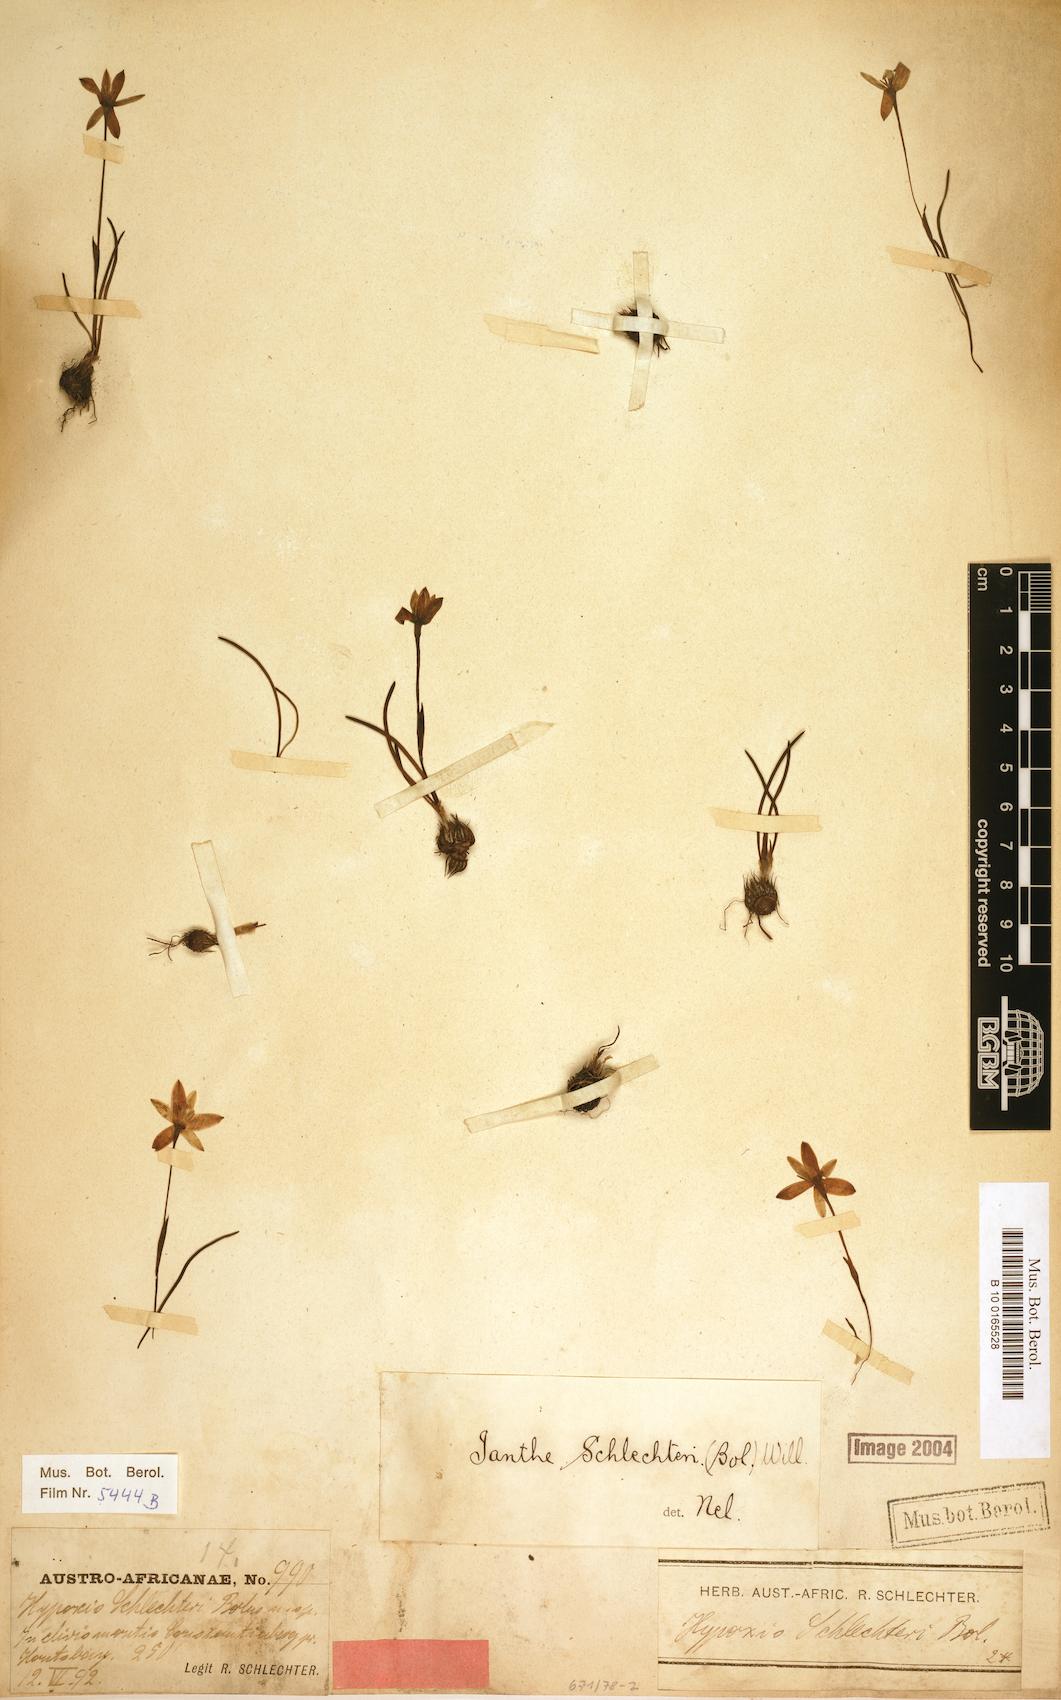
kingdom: Plantae
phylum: Tracheophyta
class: Liliopsida
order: Asparagales
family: Hypoxidaceae
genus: Pauridia
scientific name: Pauridia affinis
